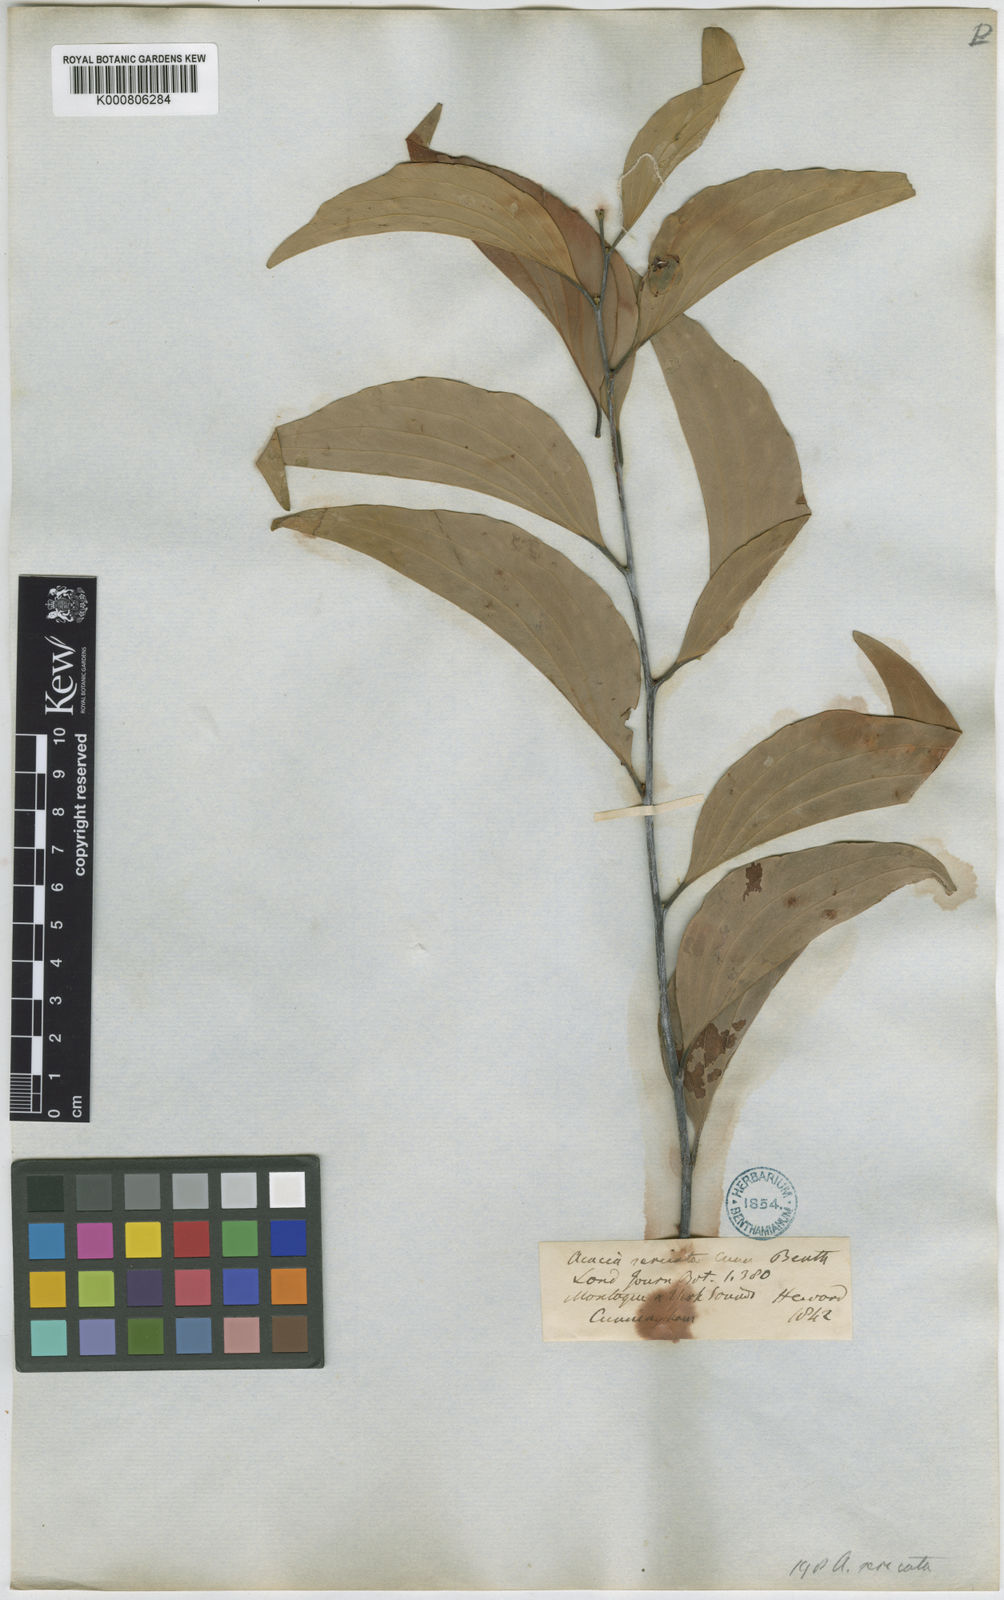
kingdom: Plantae
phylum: Tracheophyta
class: Magnoliopsida
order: Fabales
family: Fabaceae
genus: Acacia
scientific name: Acacia sericata
